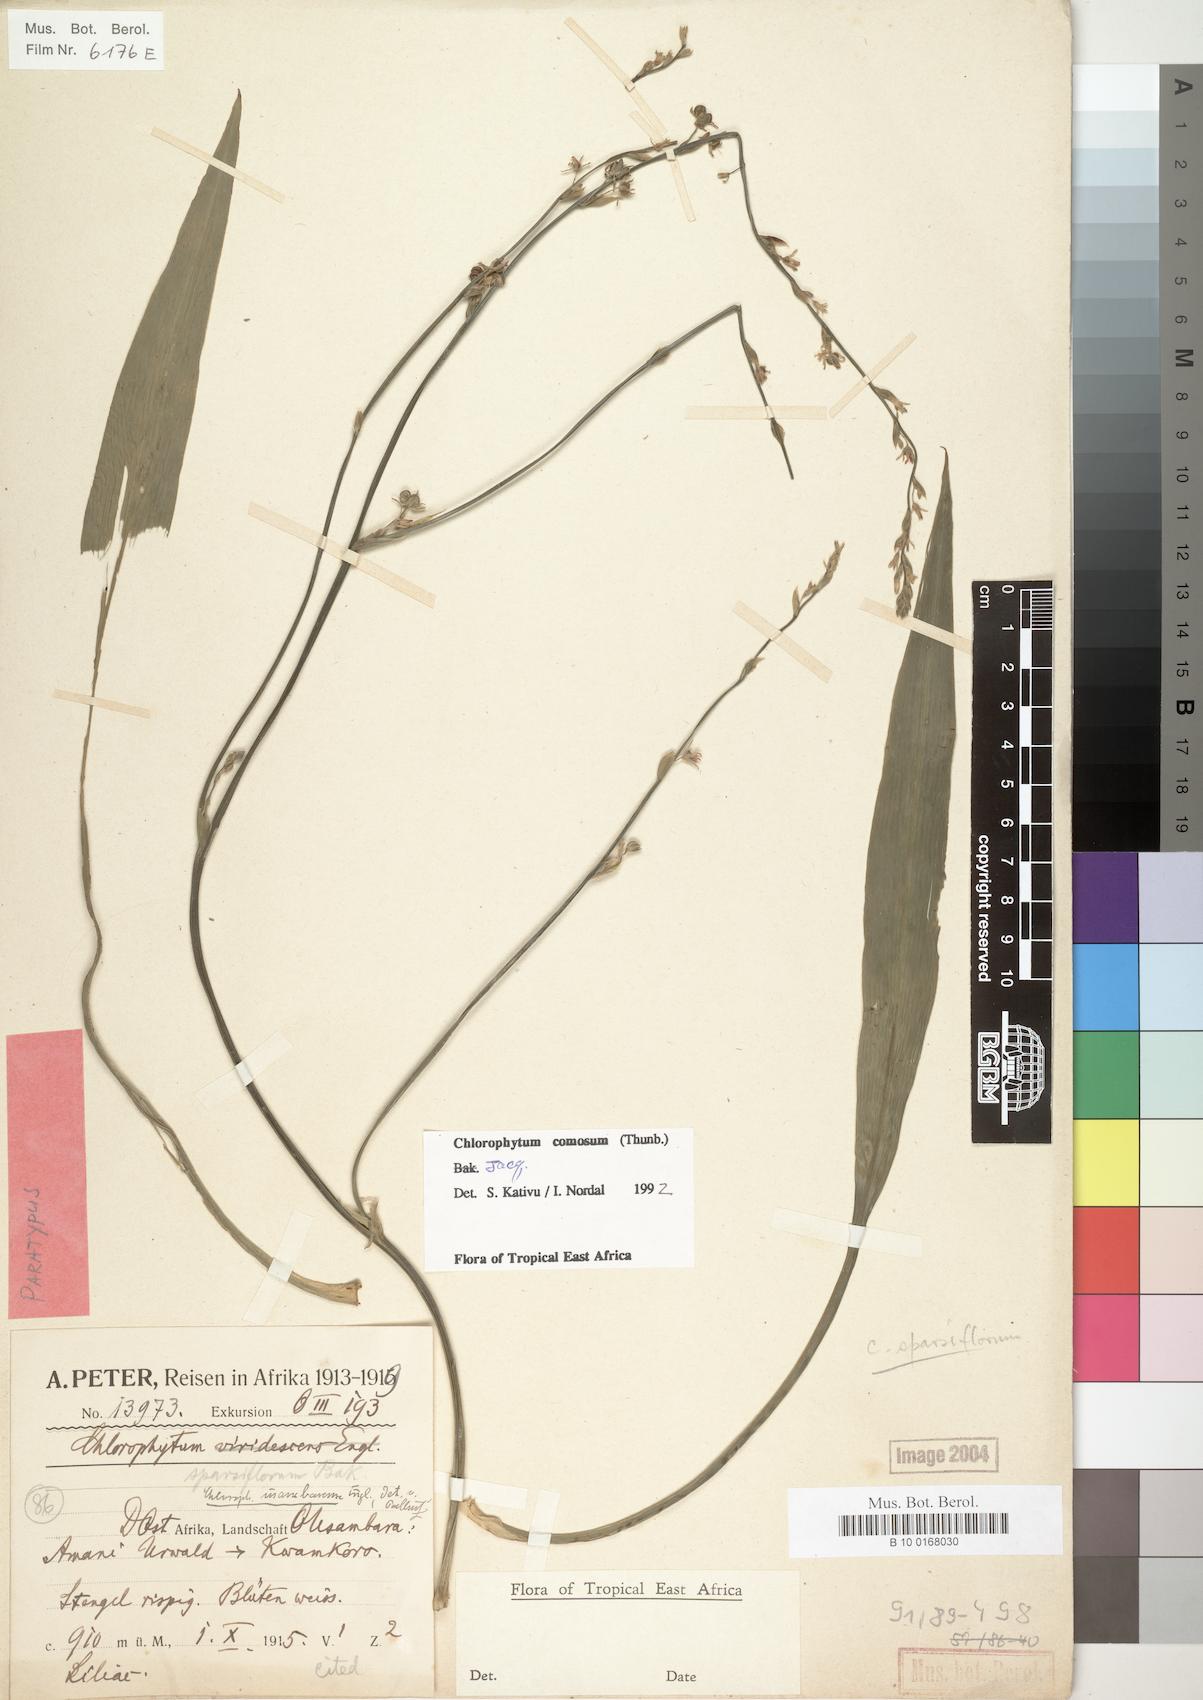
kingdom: Plantae
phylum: Tracheophyta
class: Liliopsida
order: Asparagales
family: Asparagaceae
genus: Chlorophytum
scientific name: Chlorophytum comosum
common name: Spider plant
